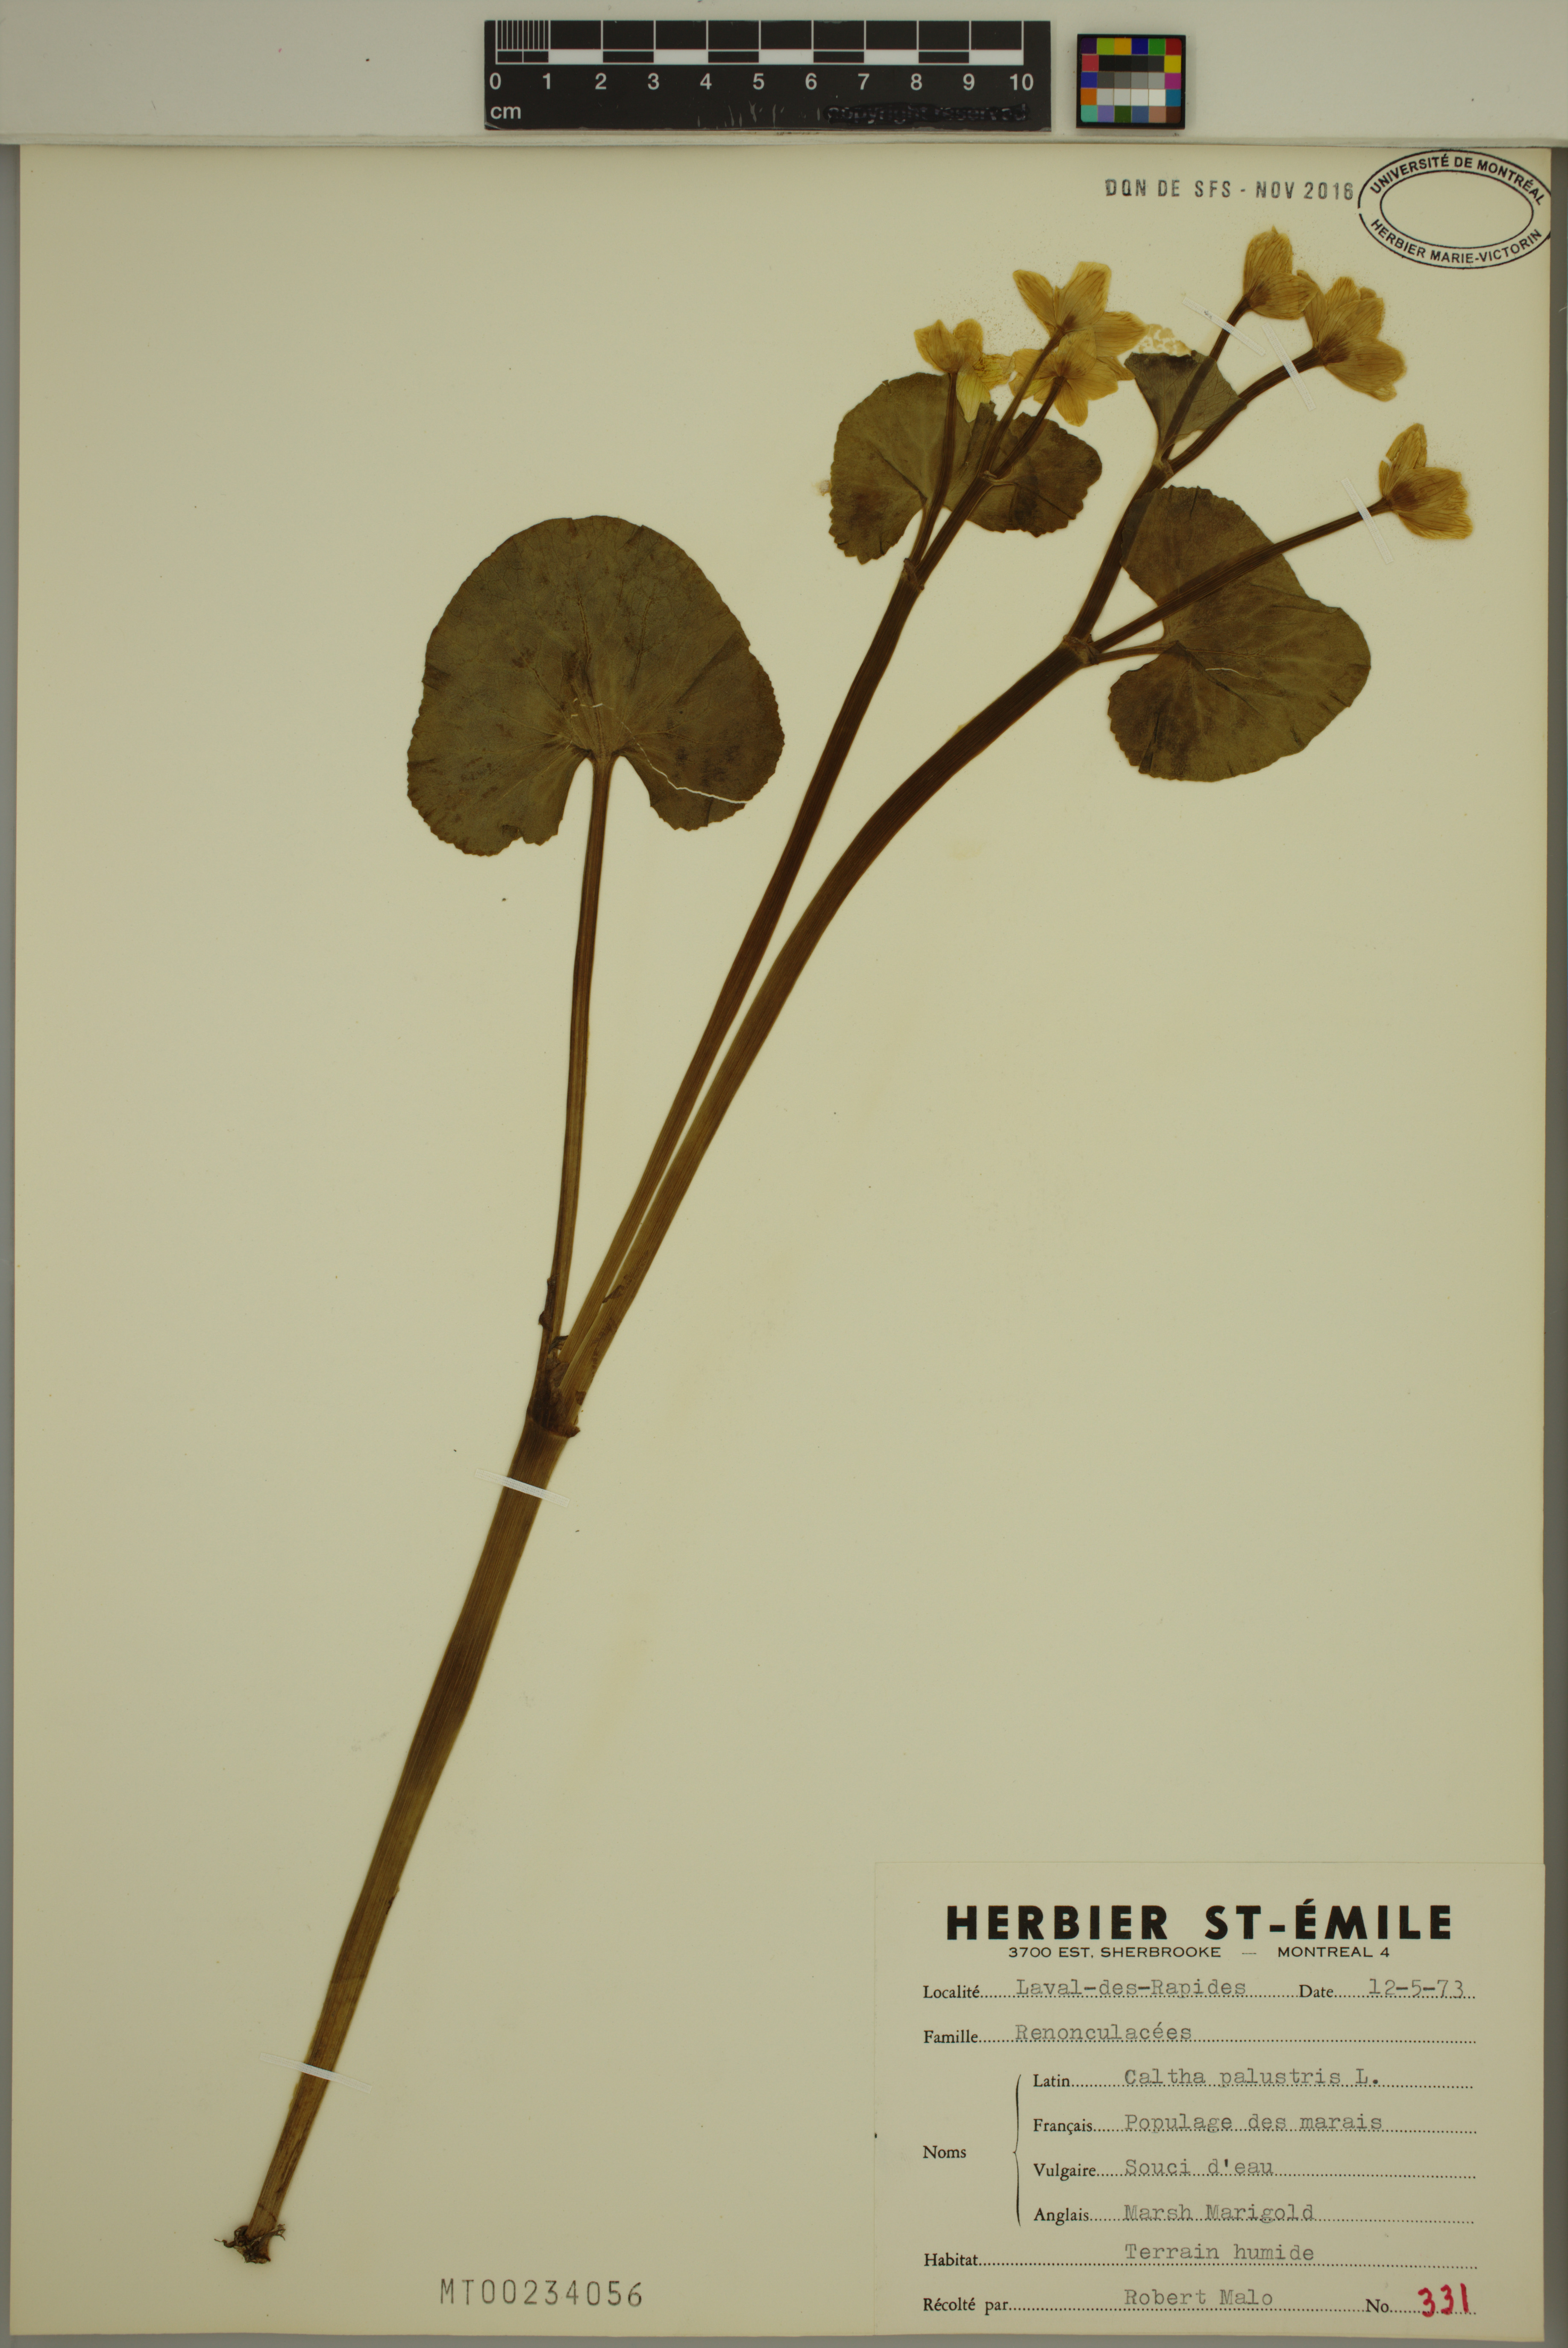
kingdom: Plantae
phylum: Tracheophyta
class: Magnoliopsida
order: Ranunculales
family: Ranunculaceae
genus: Caltha
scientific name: Caltha palustris
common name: Marsh marigold
